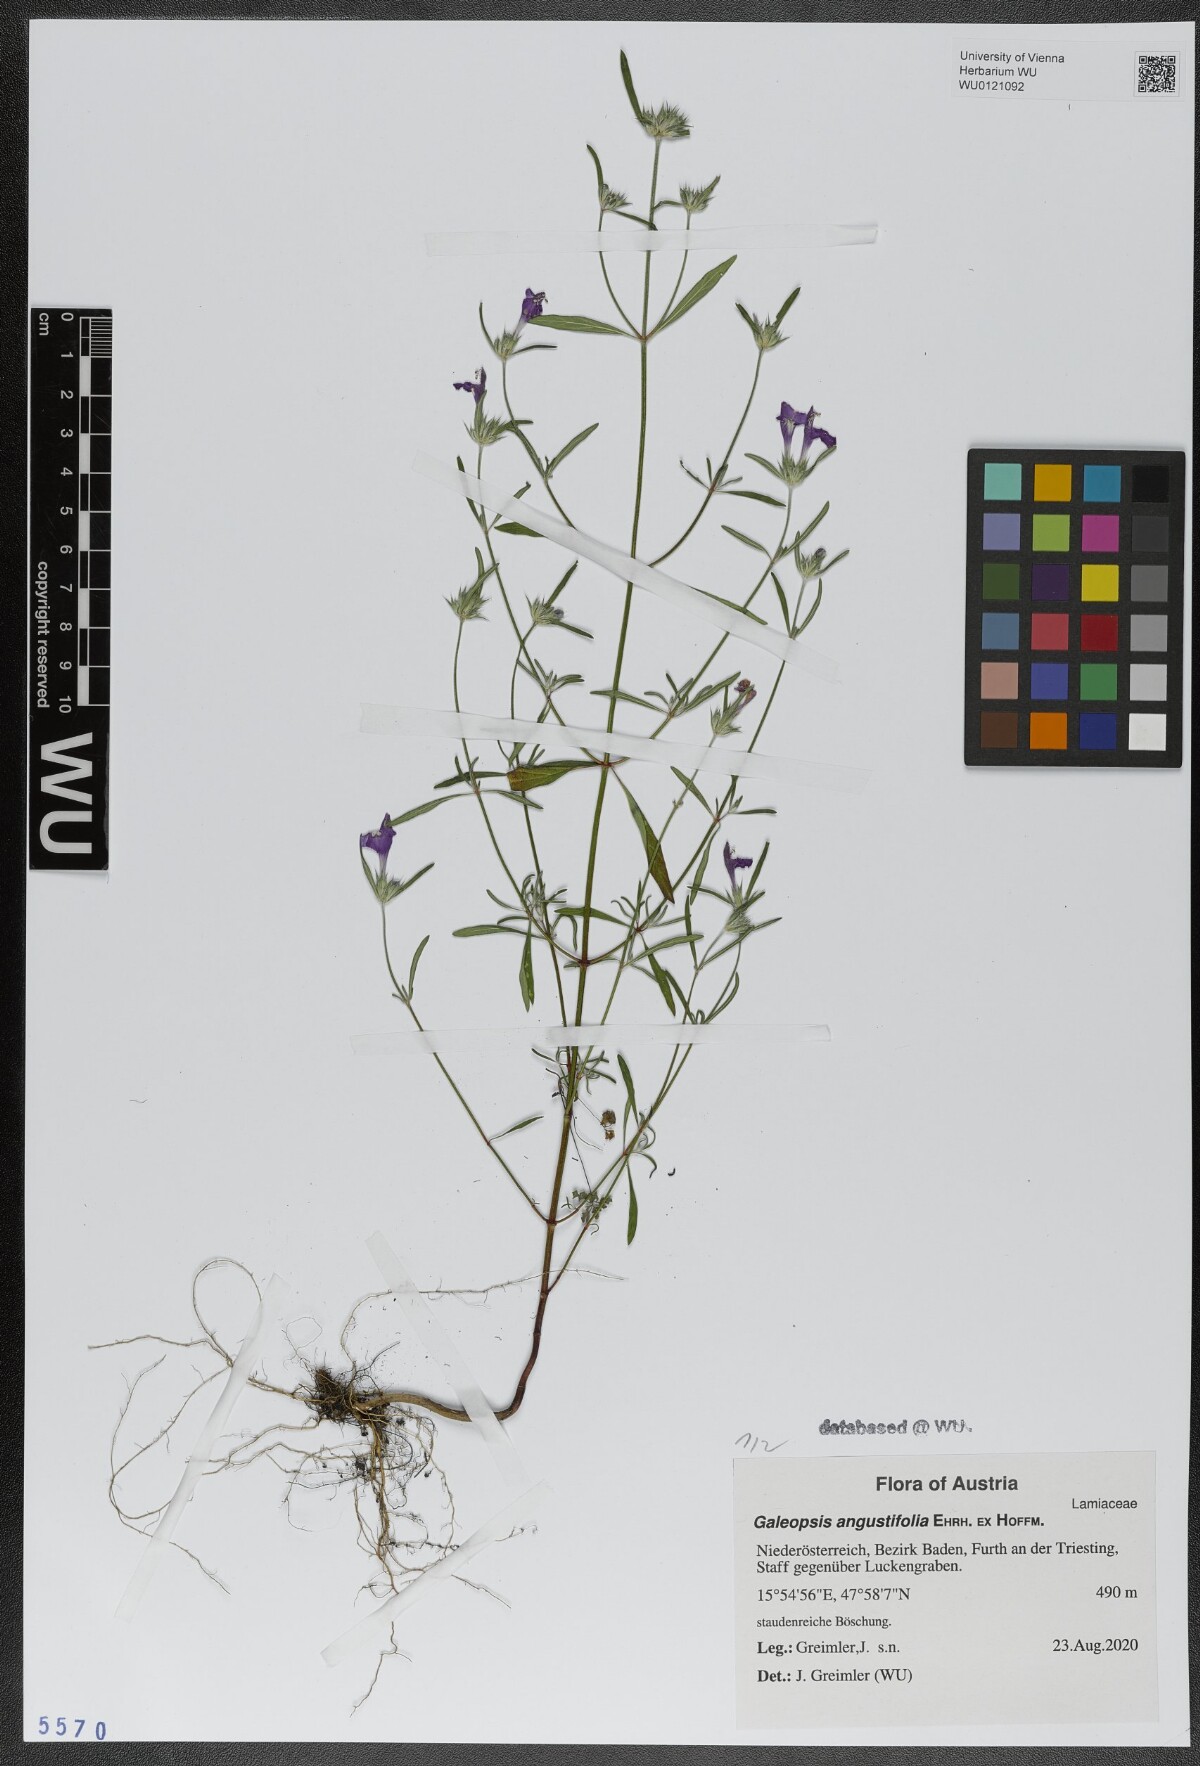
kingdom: Plantae
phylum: Tracheophyta
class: Magnoliopsida
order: Lamiales
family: Lamiaceae
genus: Galeopsis
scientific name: Galeopsis angustifolia
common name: Red hemp-nettle
